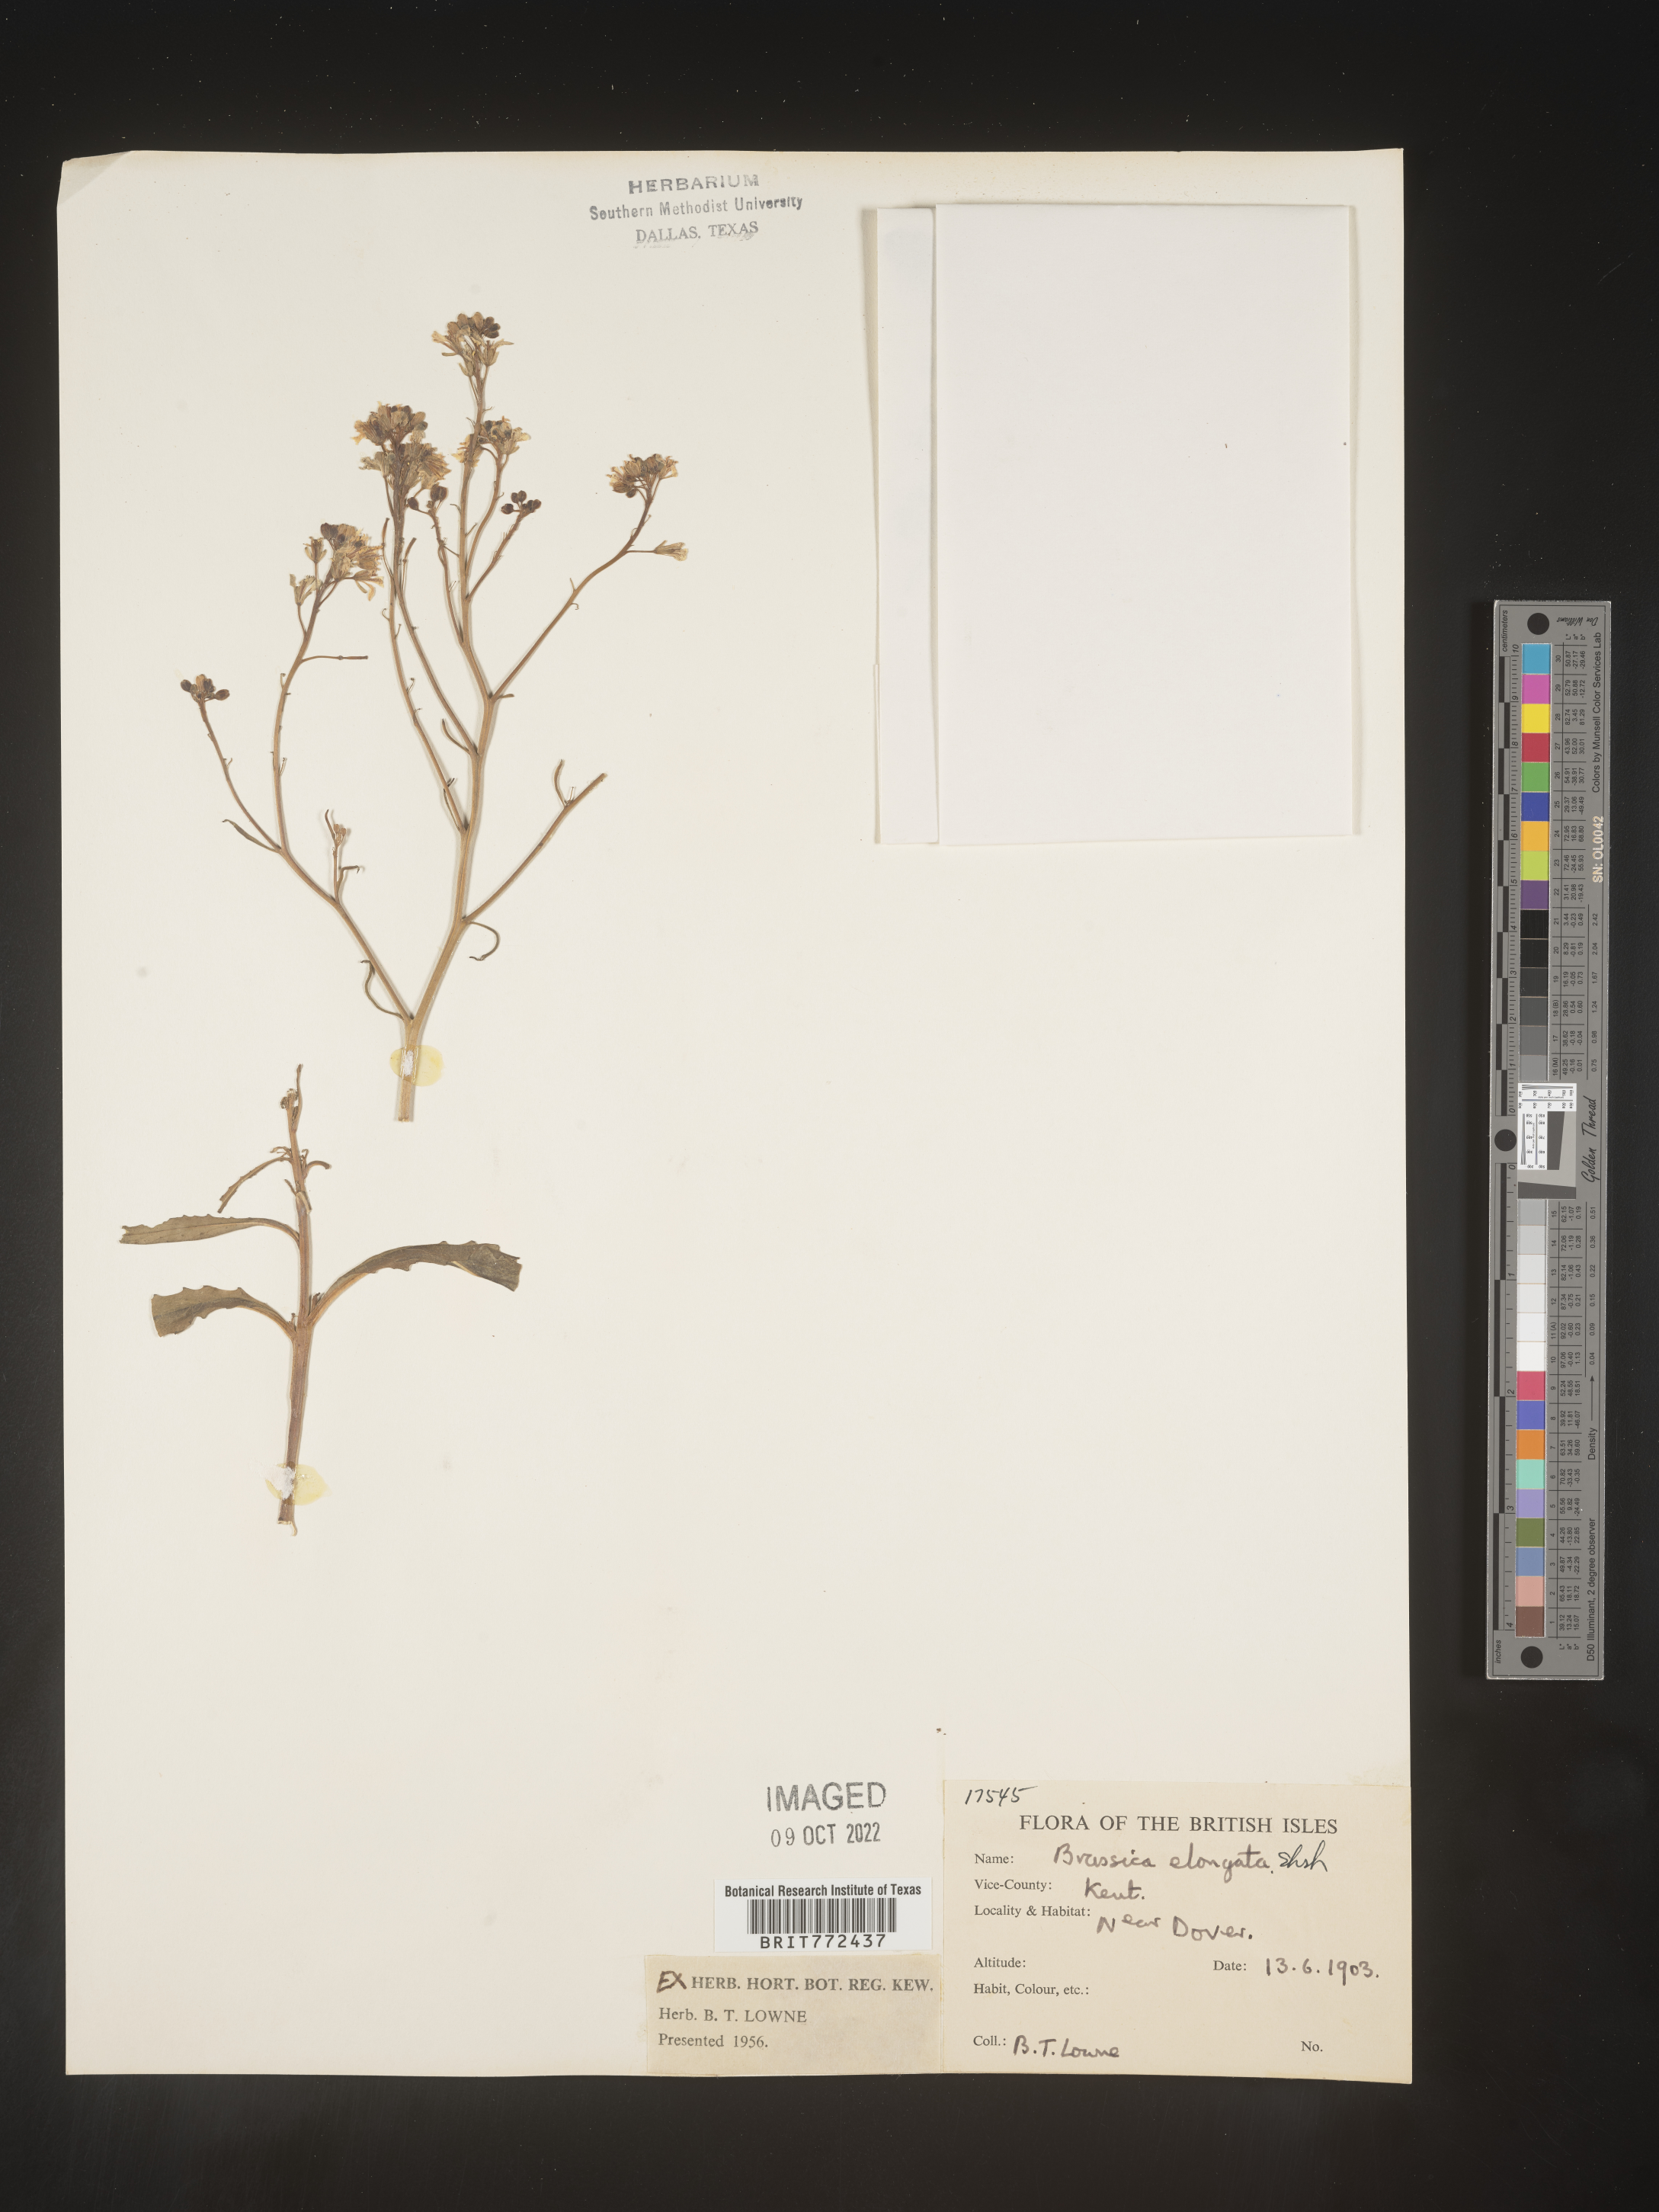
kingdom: Plantae
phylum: Tracheophyta
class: Magnoliopsida
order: Brassicales
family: Brassicaceae
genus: Brassica
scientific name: Brassica
